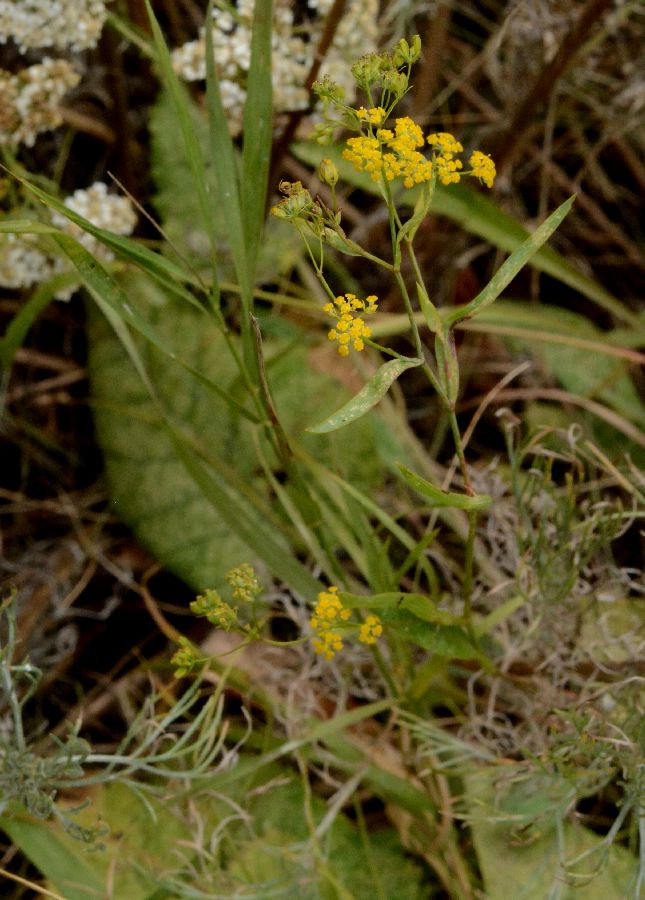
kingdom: Plantae
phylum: Tracheophyta
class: Magnoliopsida
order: Apiales
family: Apiaceae
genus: Bupleurum
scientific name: Bupleurum falcatum
